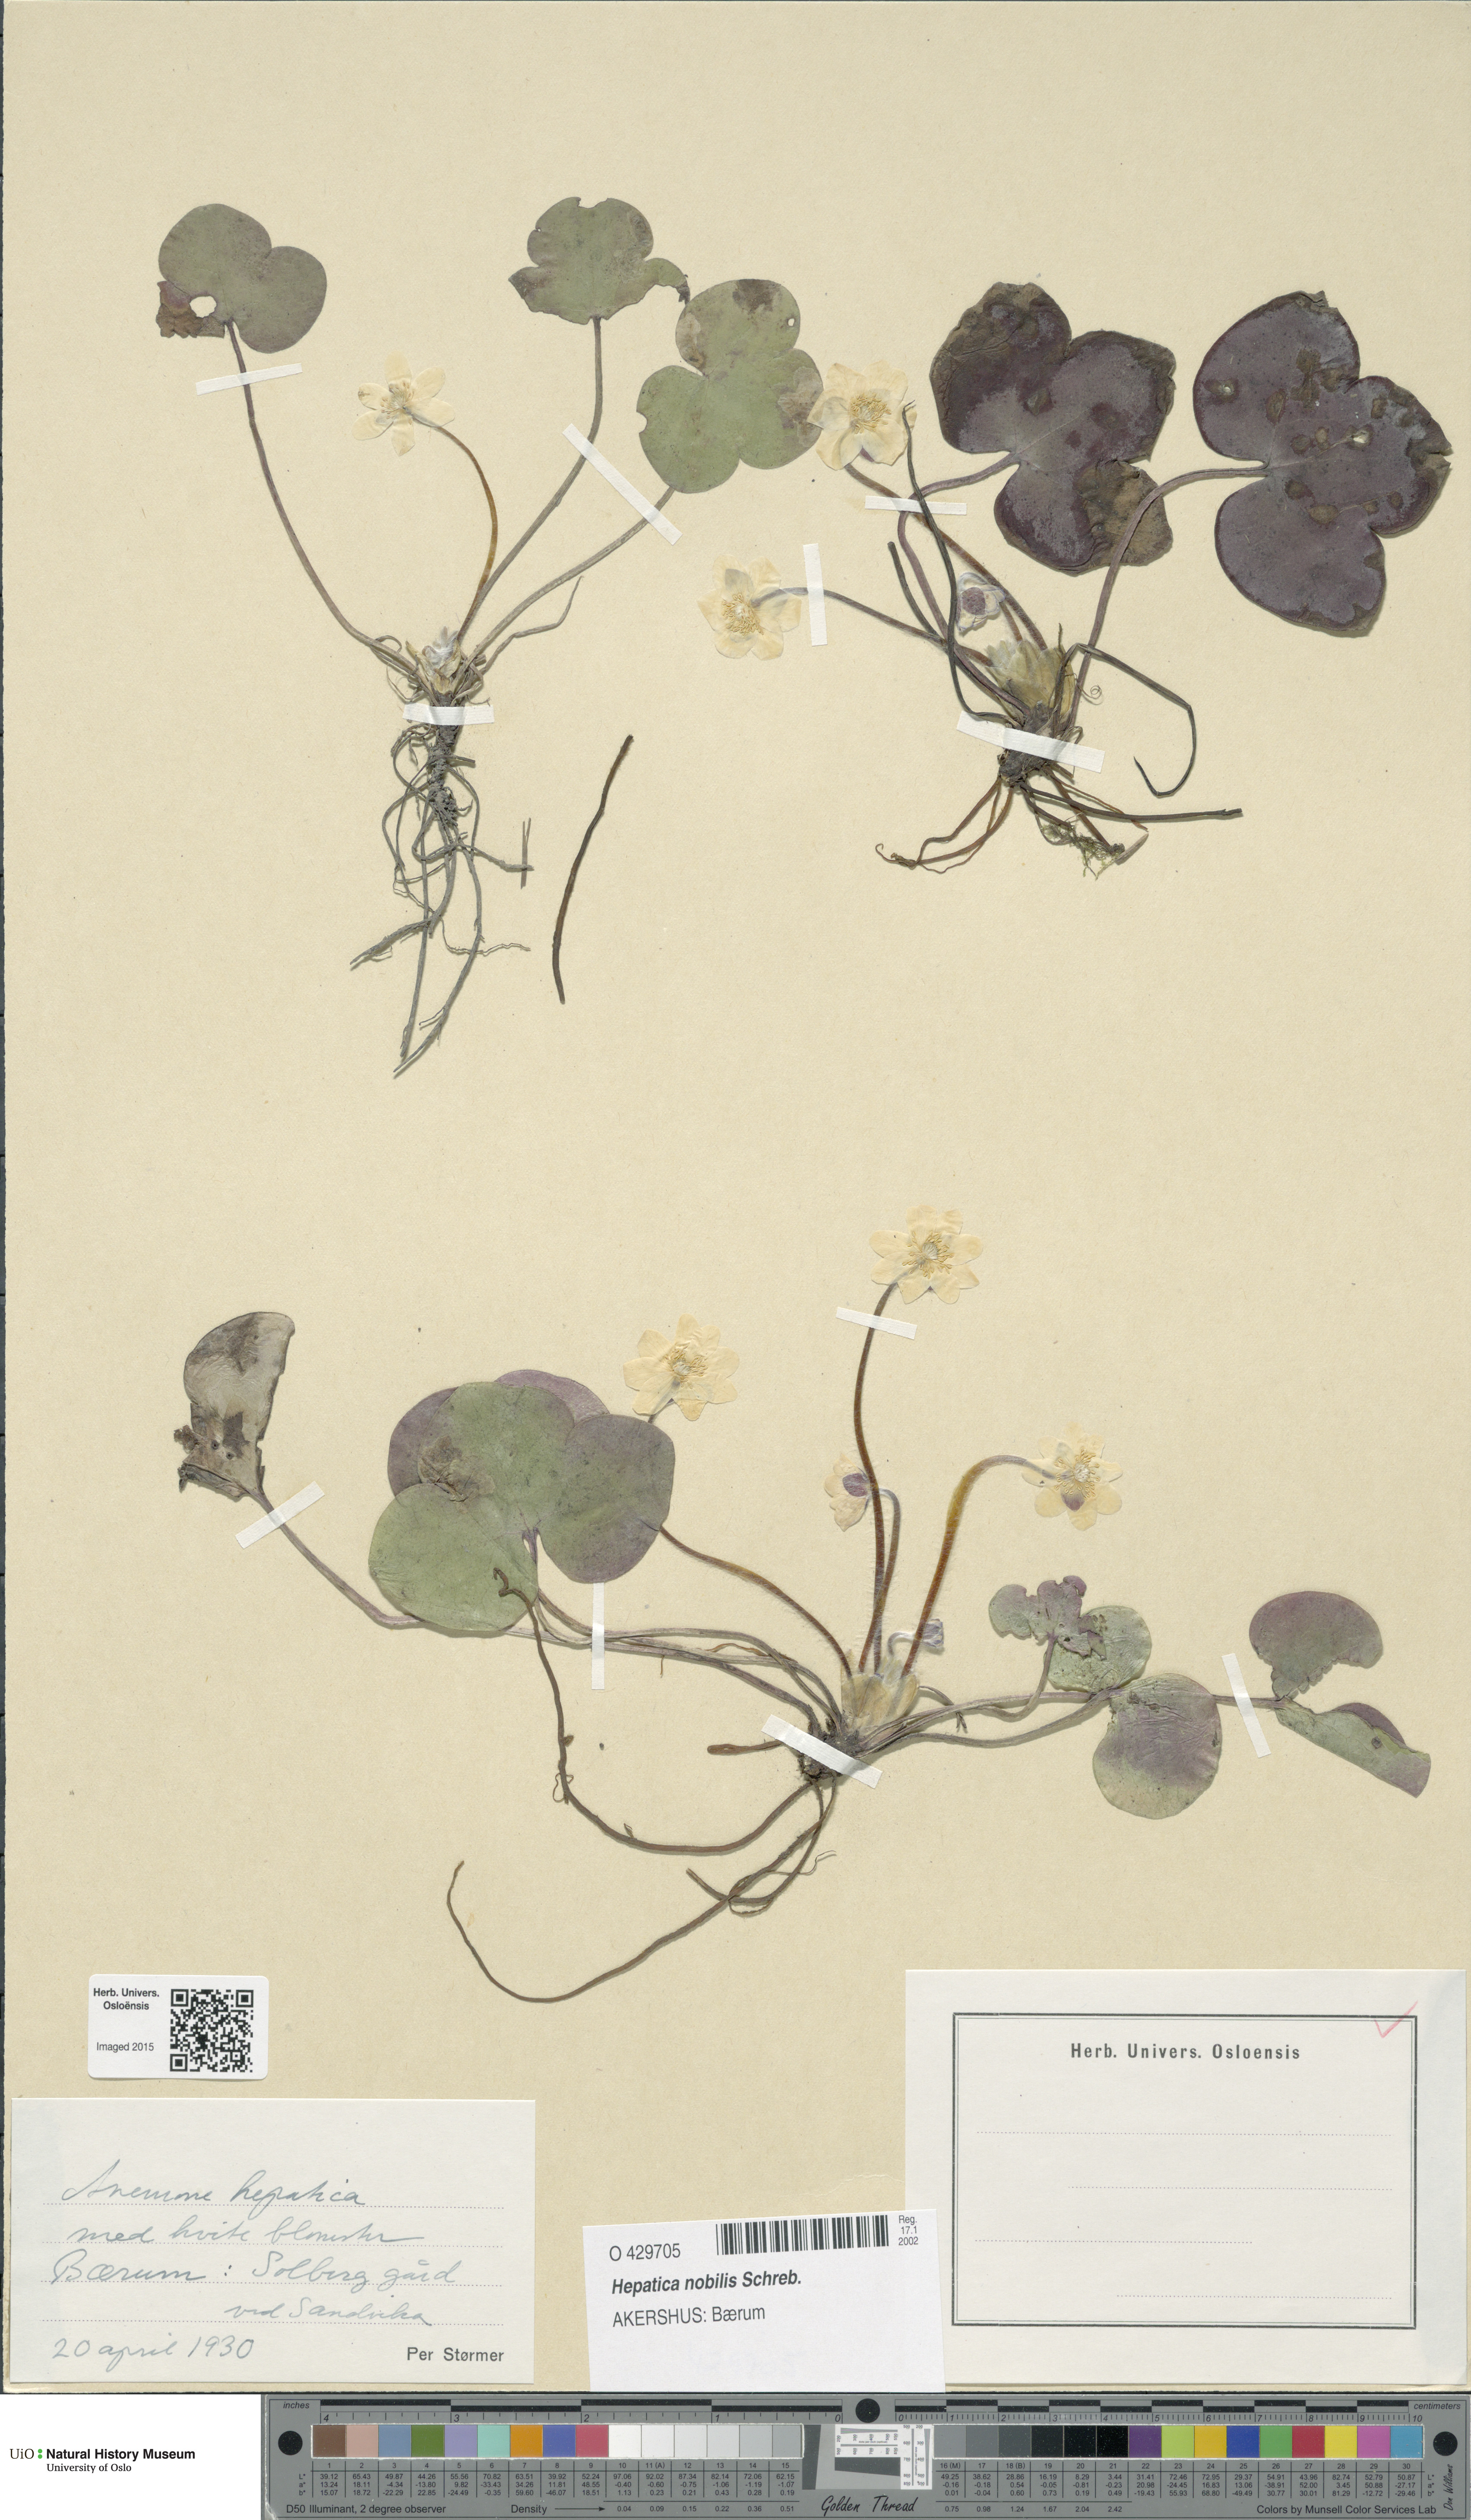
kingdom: Plantae
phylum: Tracheophyta
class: Magnoliopsida
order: Ranunculales
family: Ranunculaceae
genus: Hepatica
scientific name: Hepatica nobilis
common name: Liverleaf
